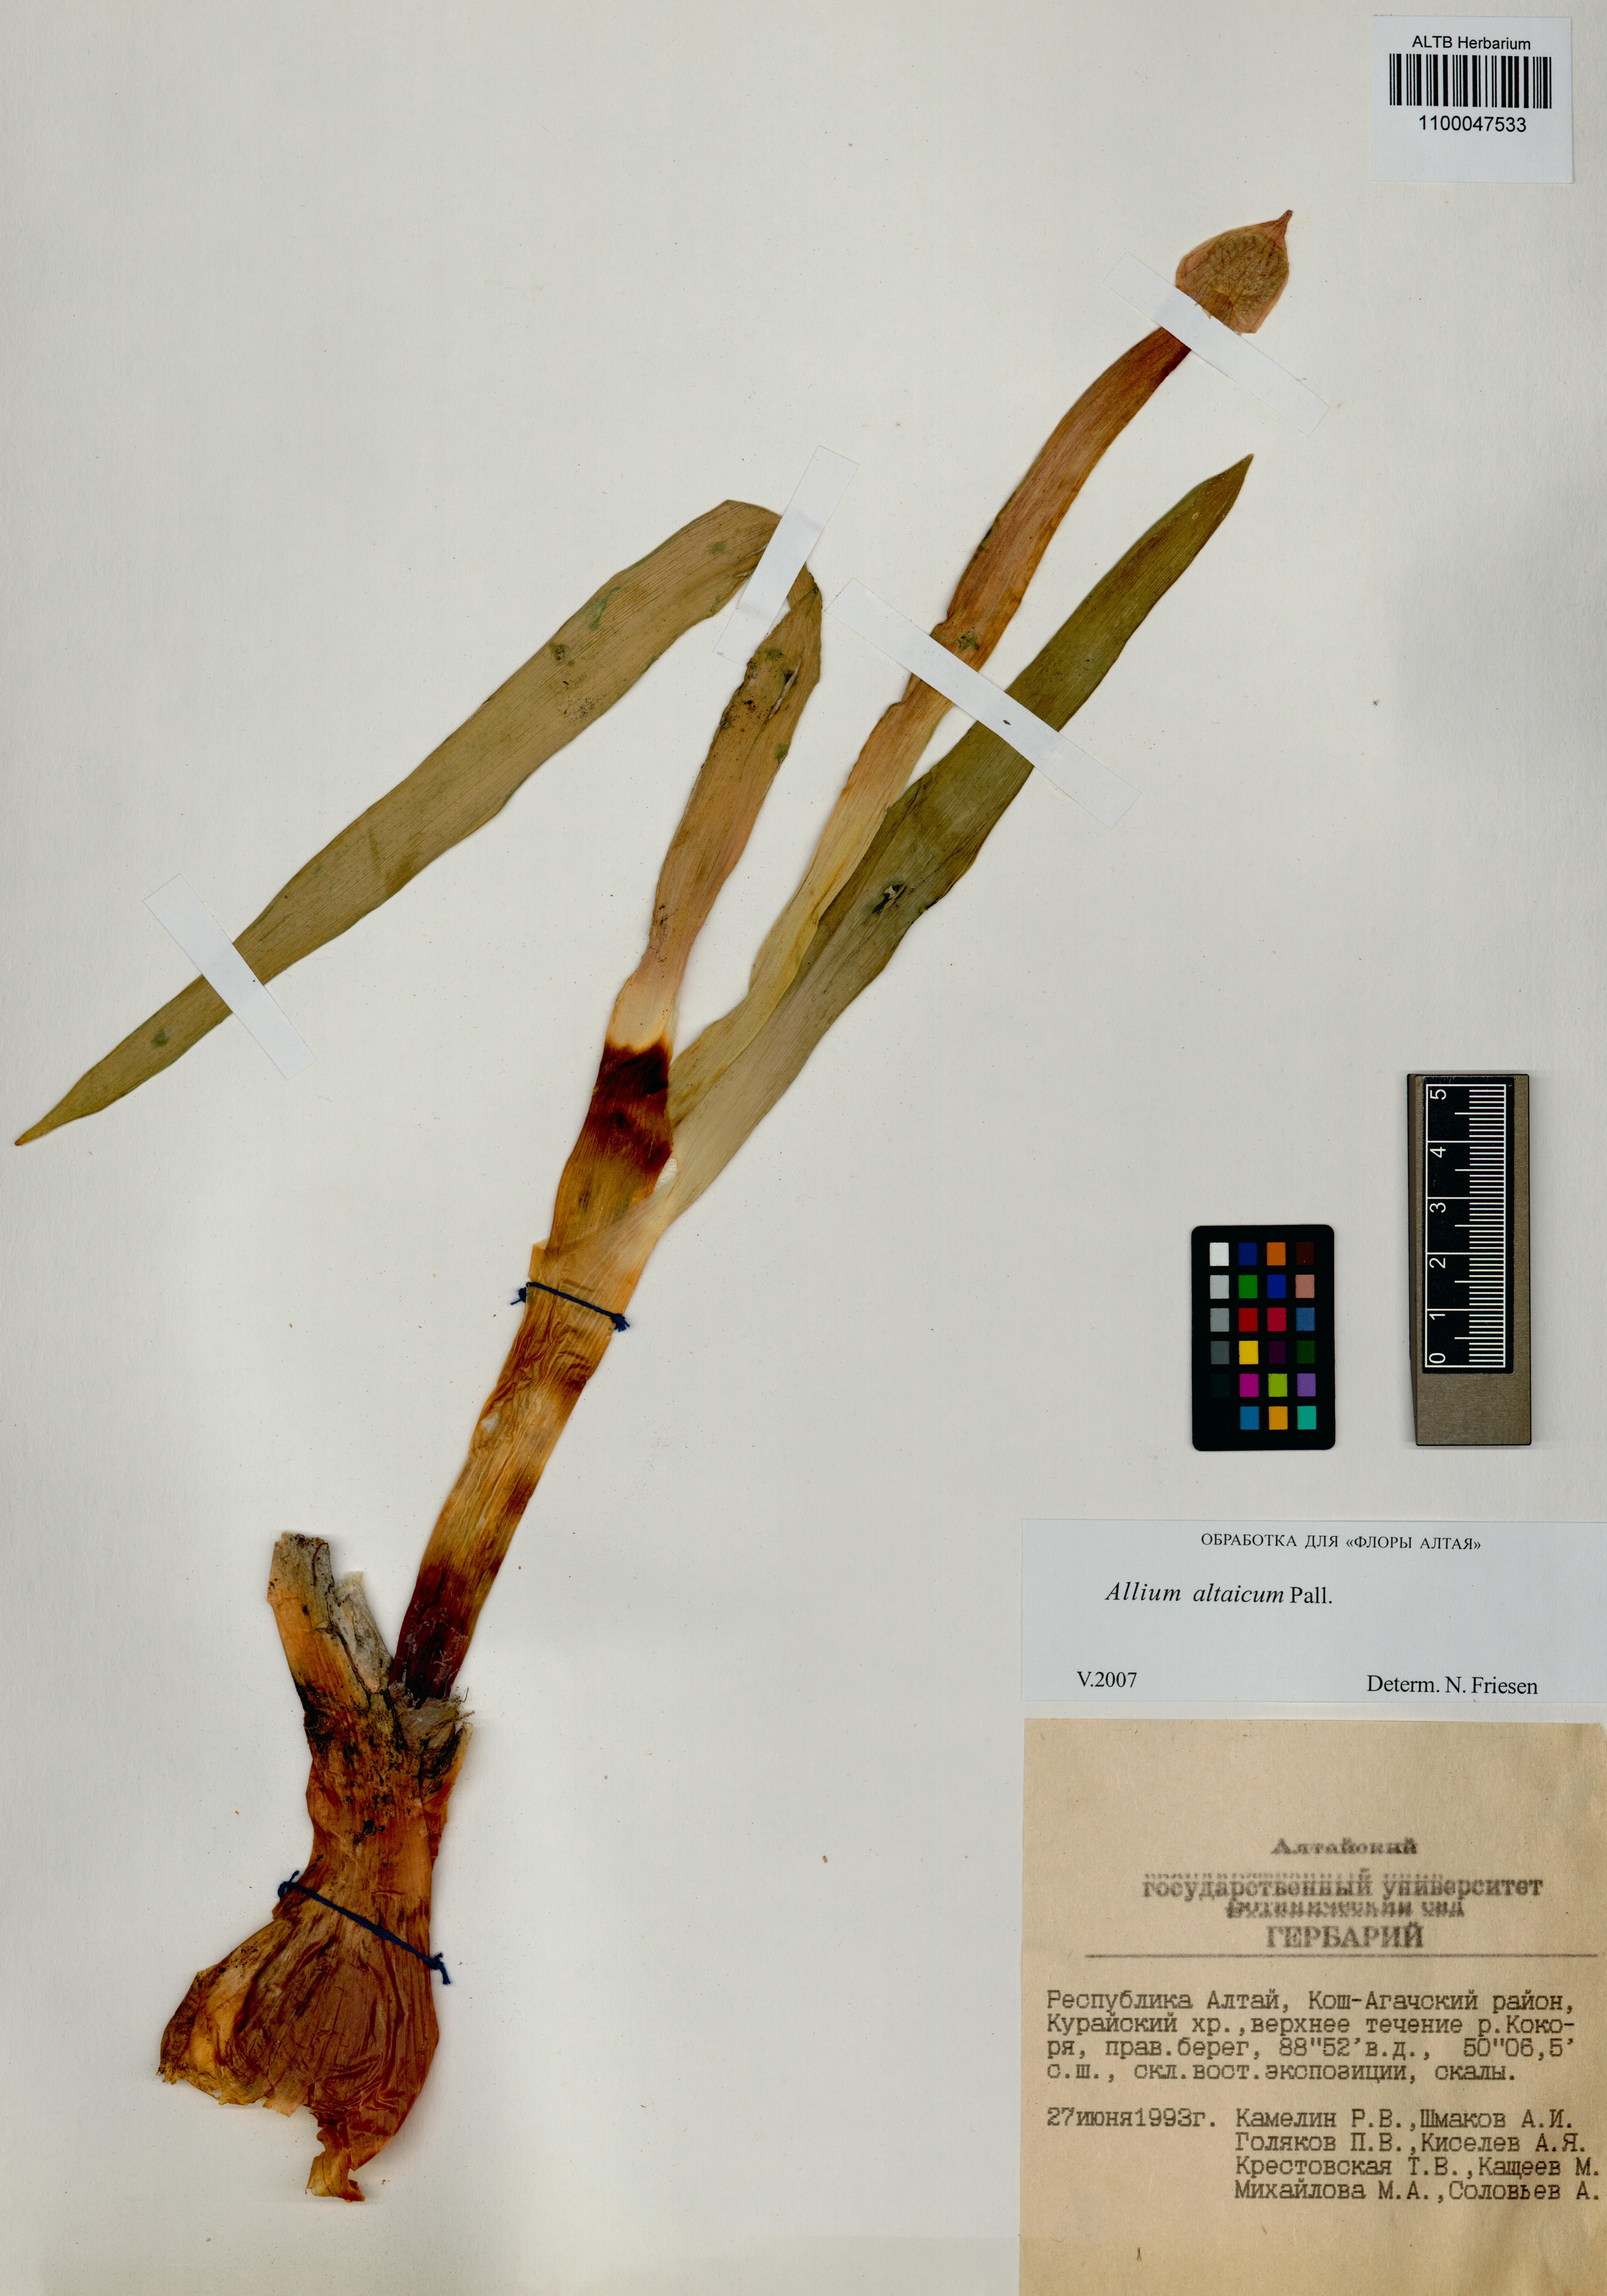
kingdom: Plantae
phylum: Tracheophyta
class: Liliopsida
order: Asparagales
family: Amaryllidaceae
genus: Allium
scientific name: Allium altaicum
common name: Altai onion
